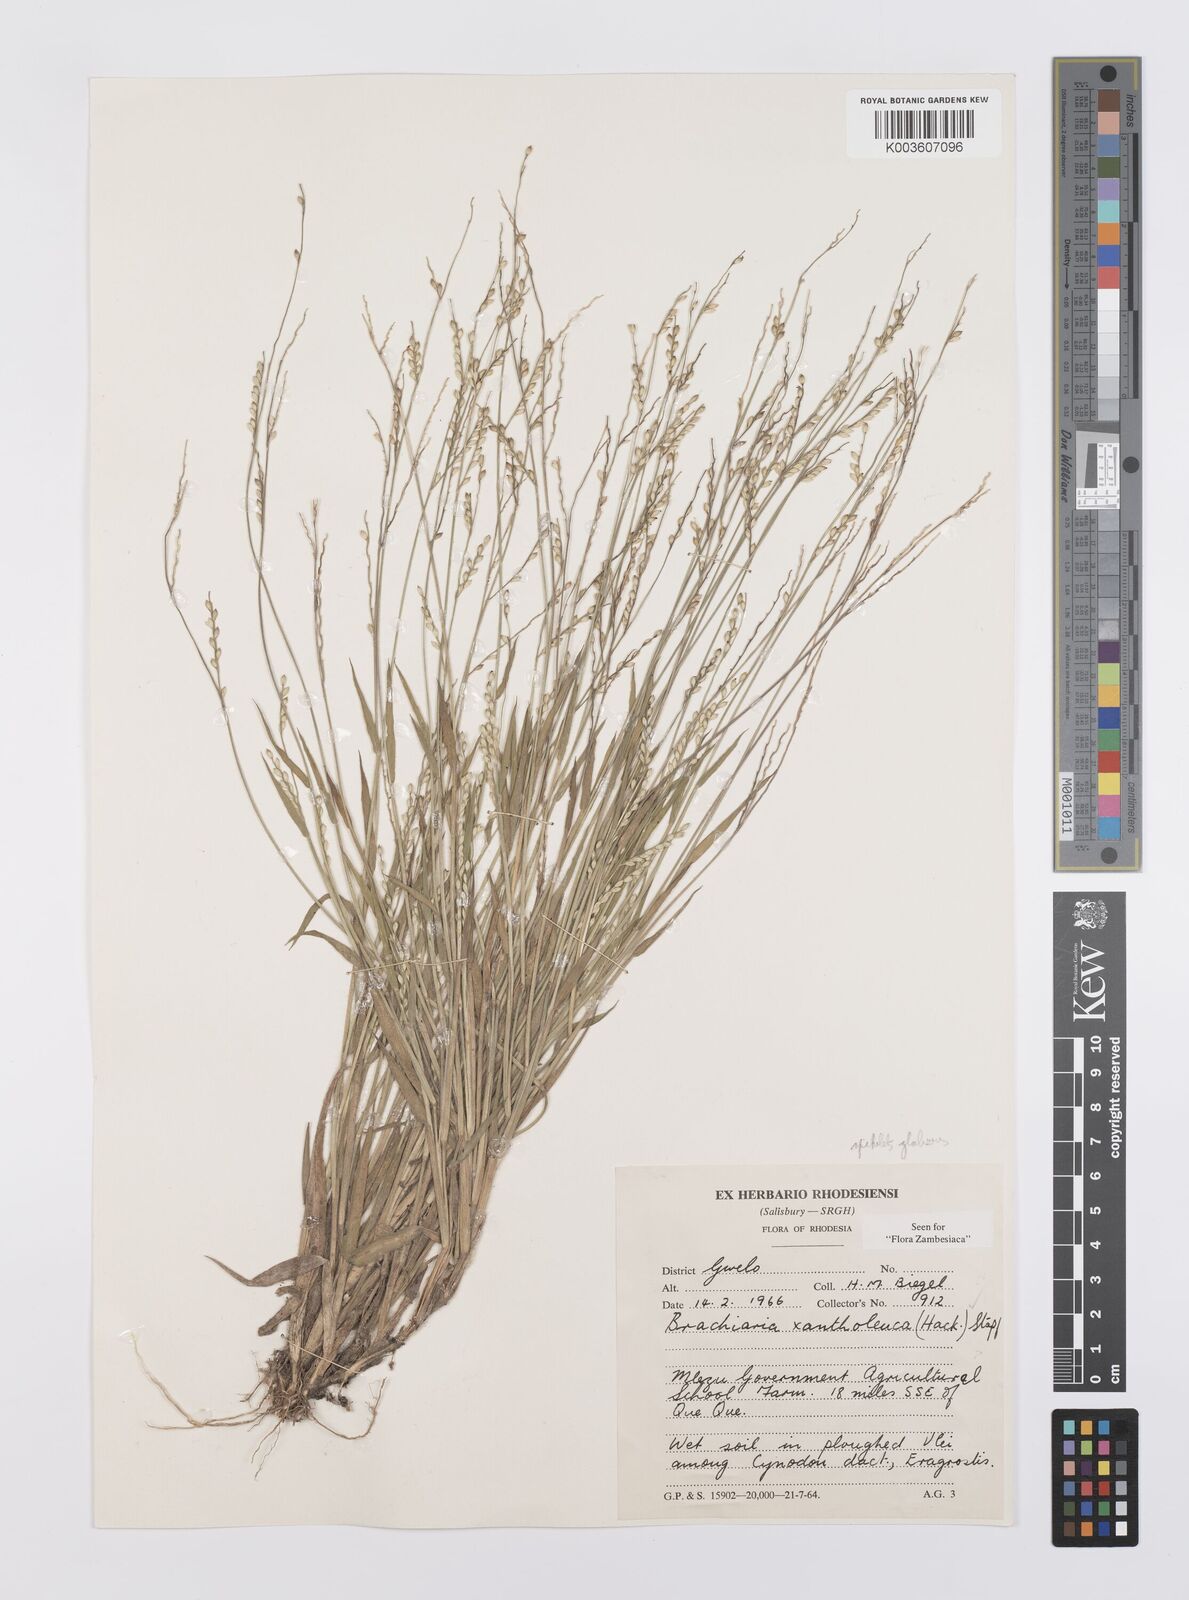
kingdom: Plantae
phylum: Tracheophyta
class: Liliopsida
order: Poales
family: Poaceae
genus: Urochloa
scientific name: Urochloa xantholeuca
